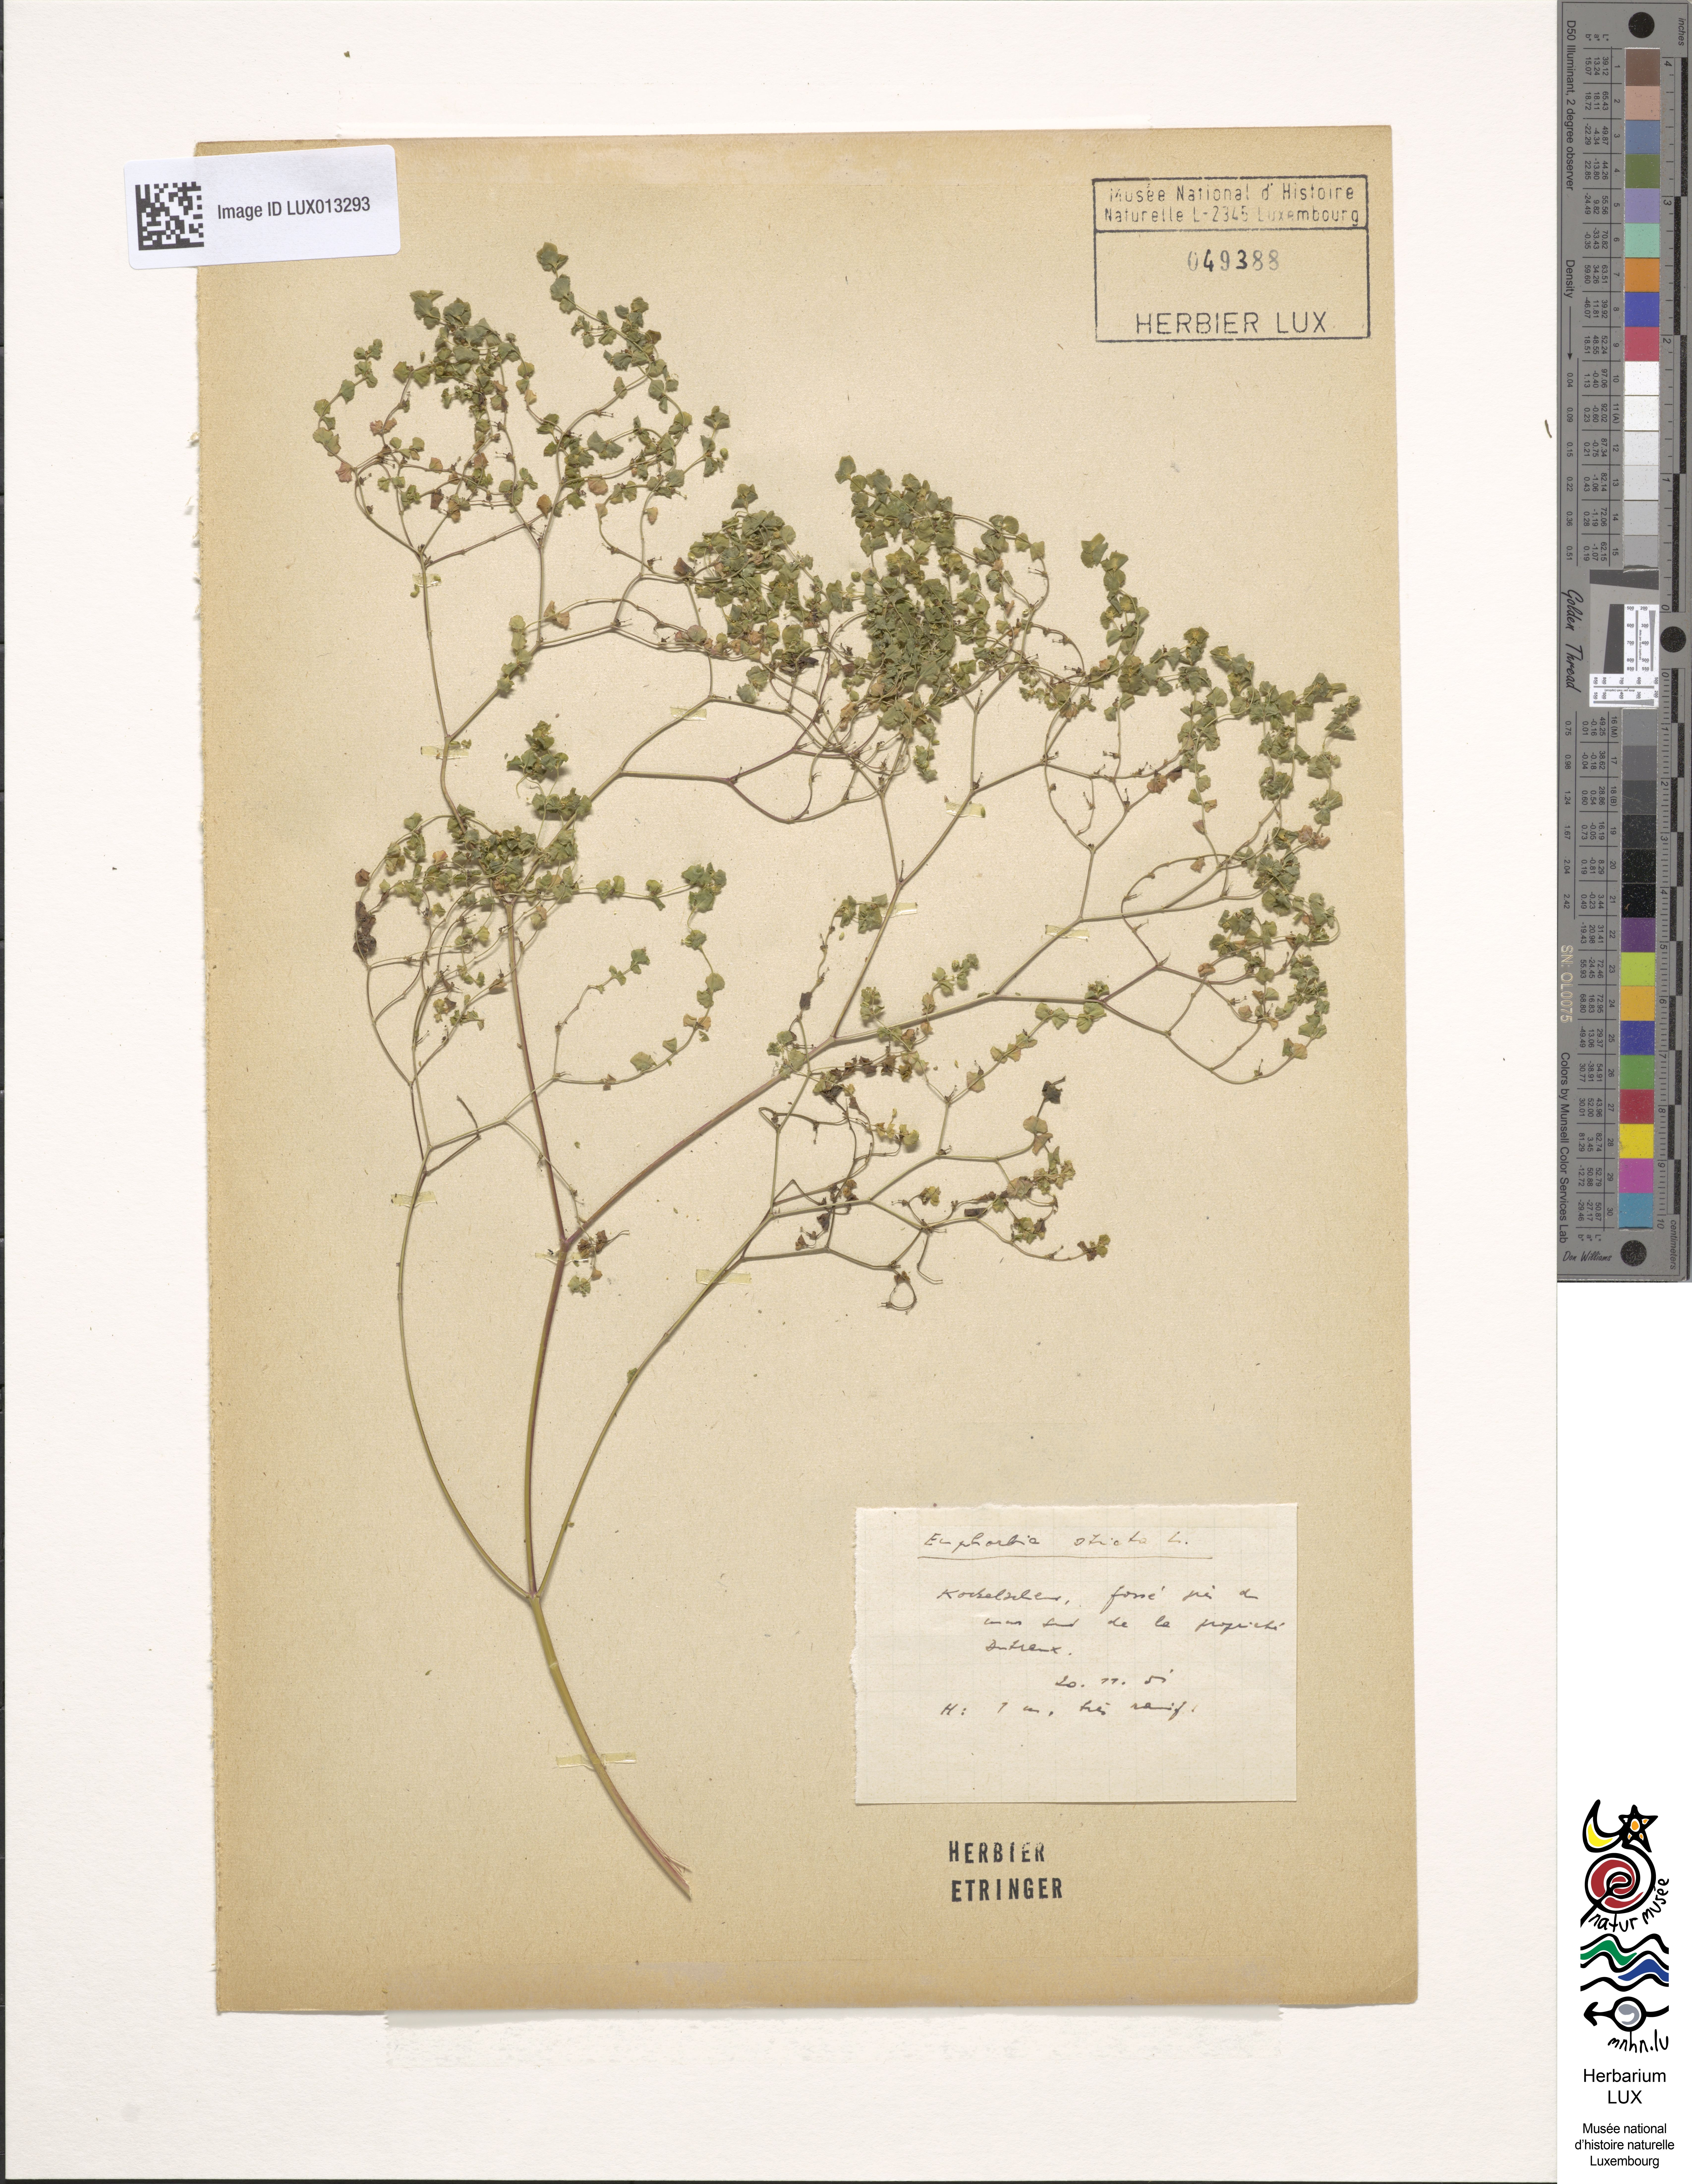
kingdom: Plantae
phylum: Tracheophyta
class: Magnoliopsida
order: Malpighiales
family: Euphorbiaceae
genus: Euphorbia
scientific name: Euphorbia stricta
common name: Upright spurge
